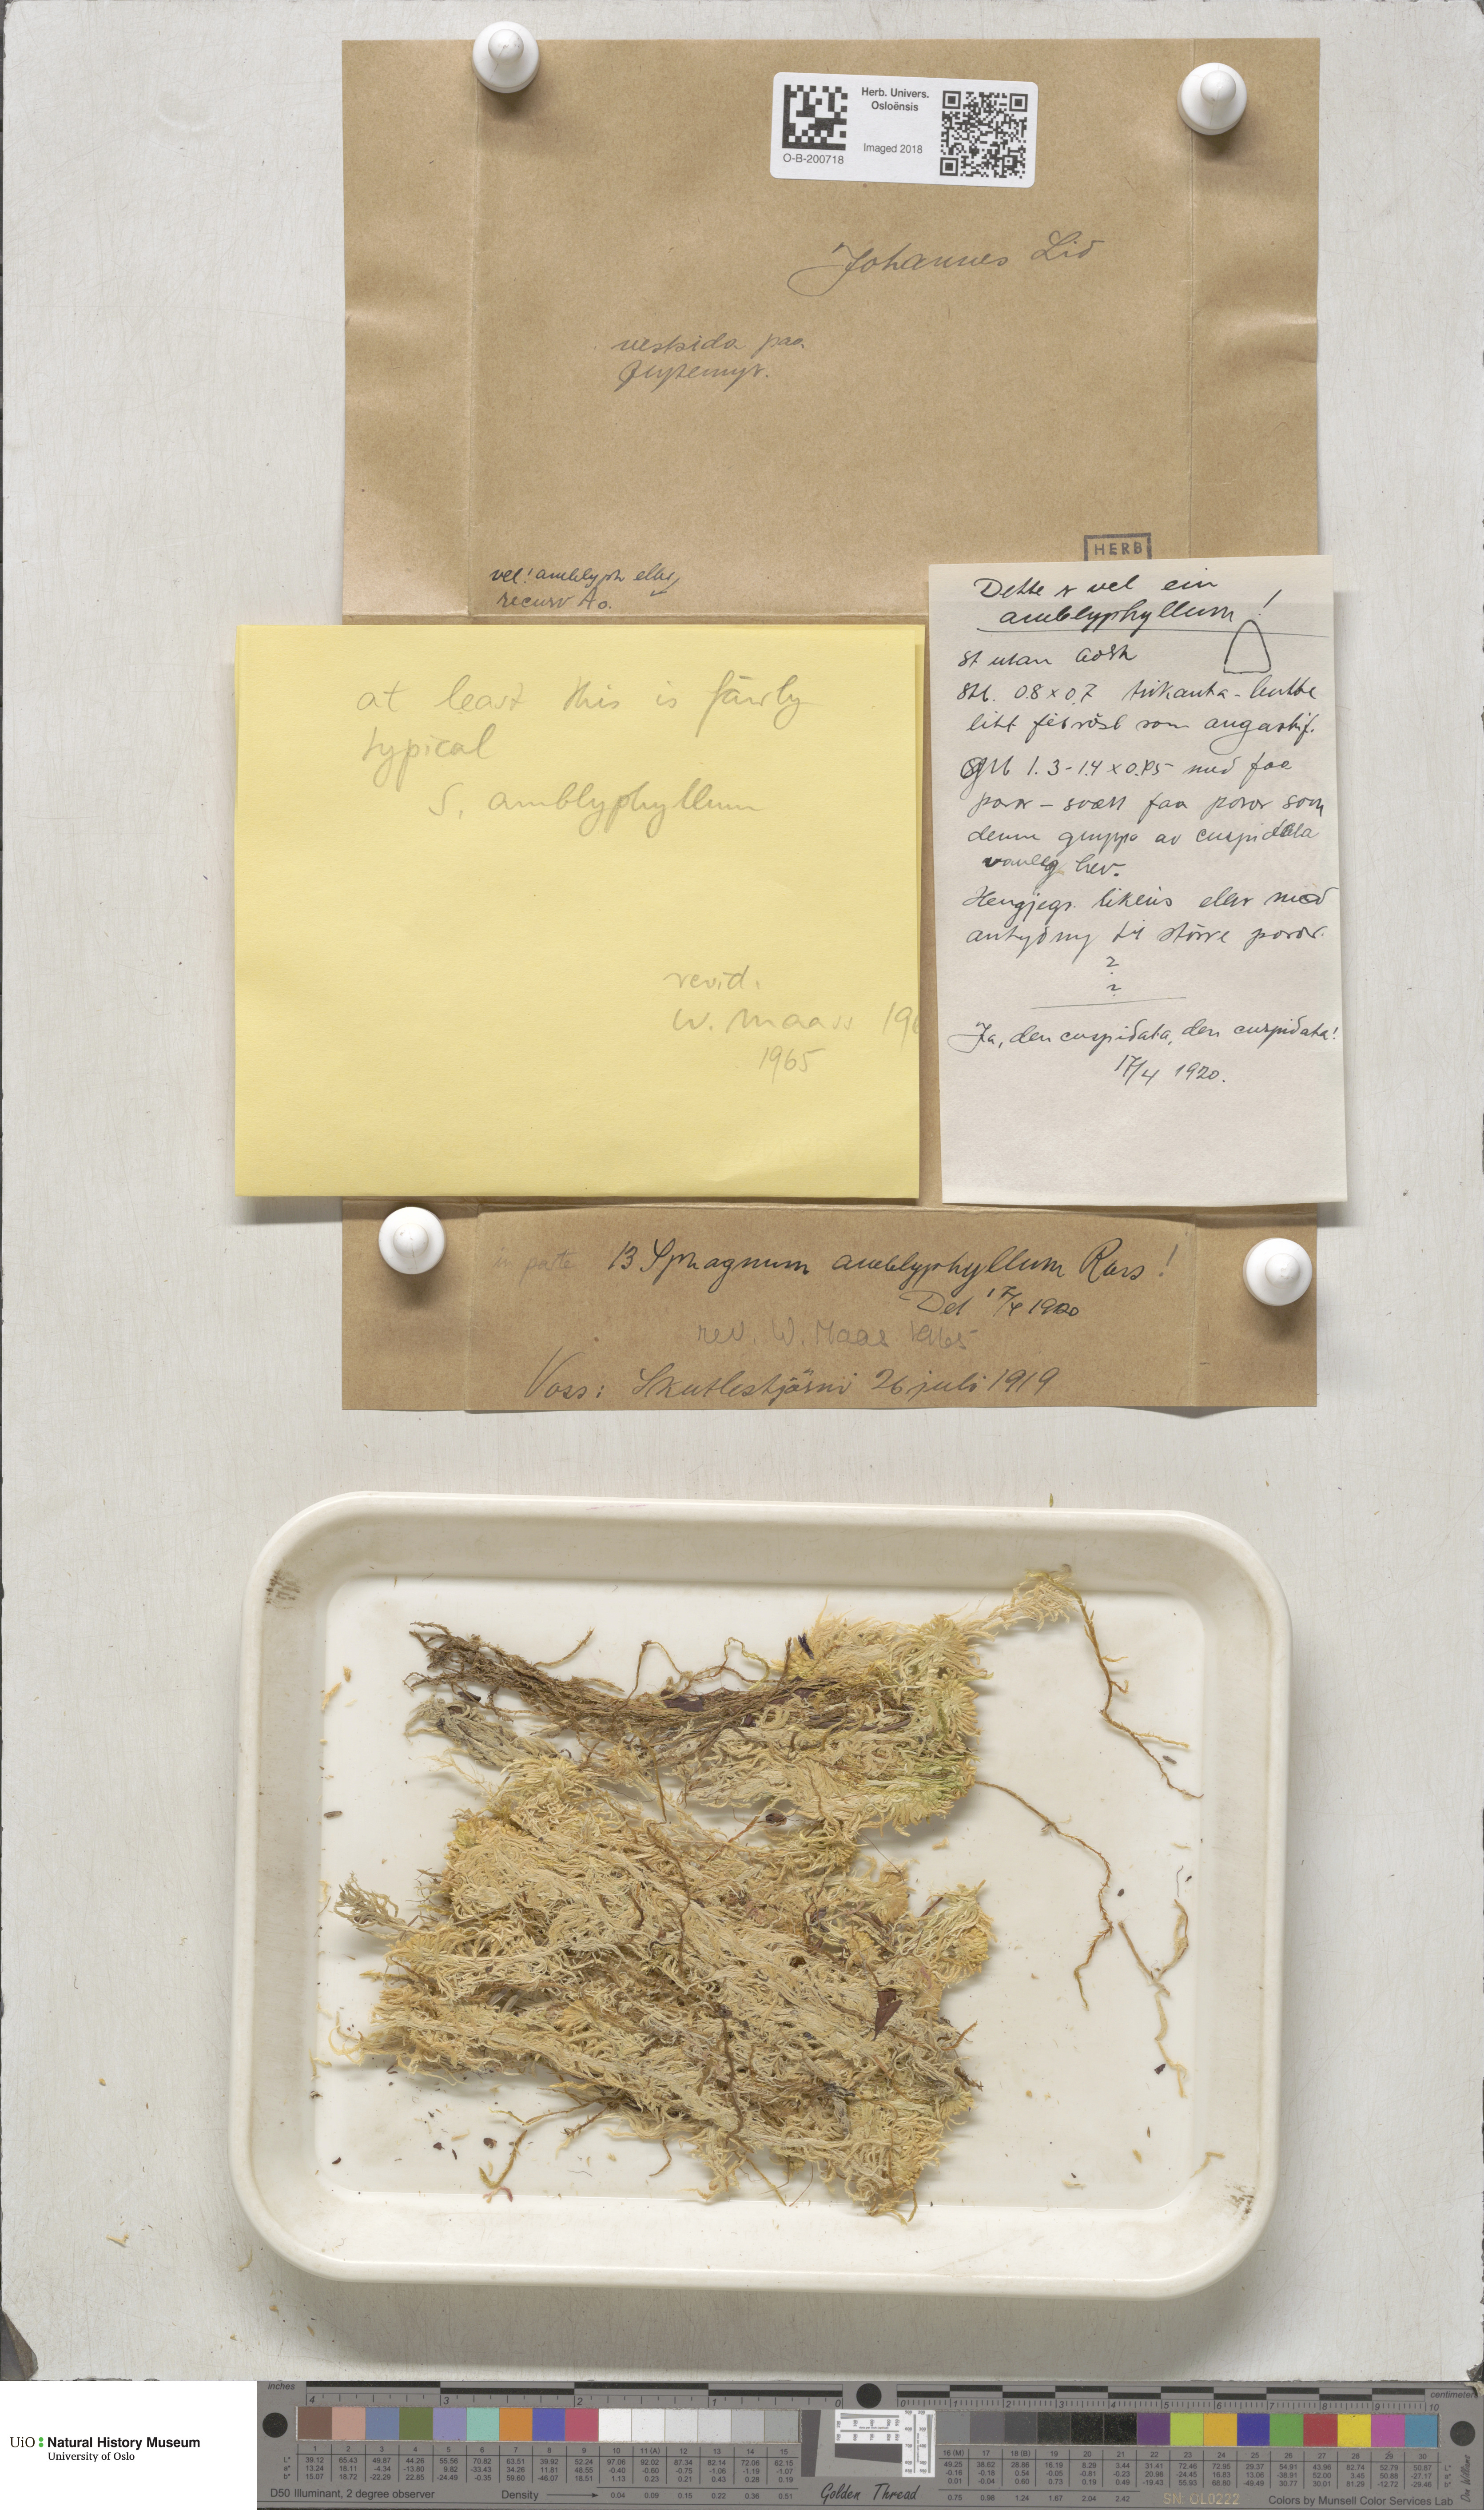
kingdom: Plantae
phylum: Bryophyta
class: Sphagnopsida
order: Sphagnales
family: Sphagnaceae
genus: Sphagnum
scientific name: Sphagnum flexuosum
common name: Flexible peat moss
